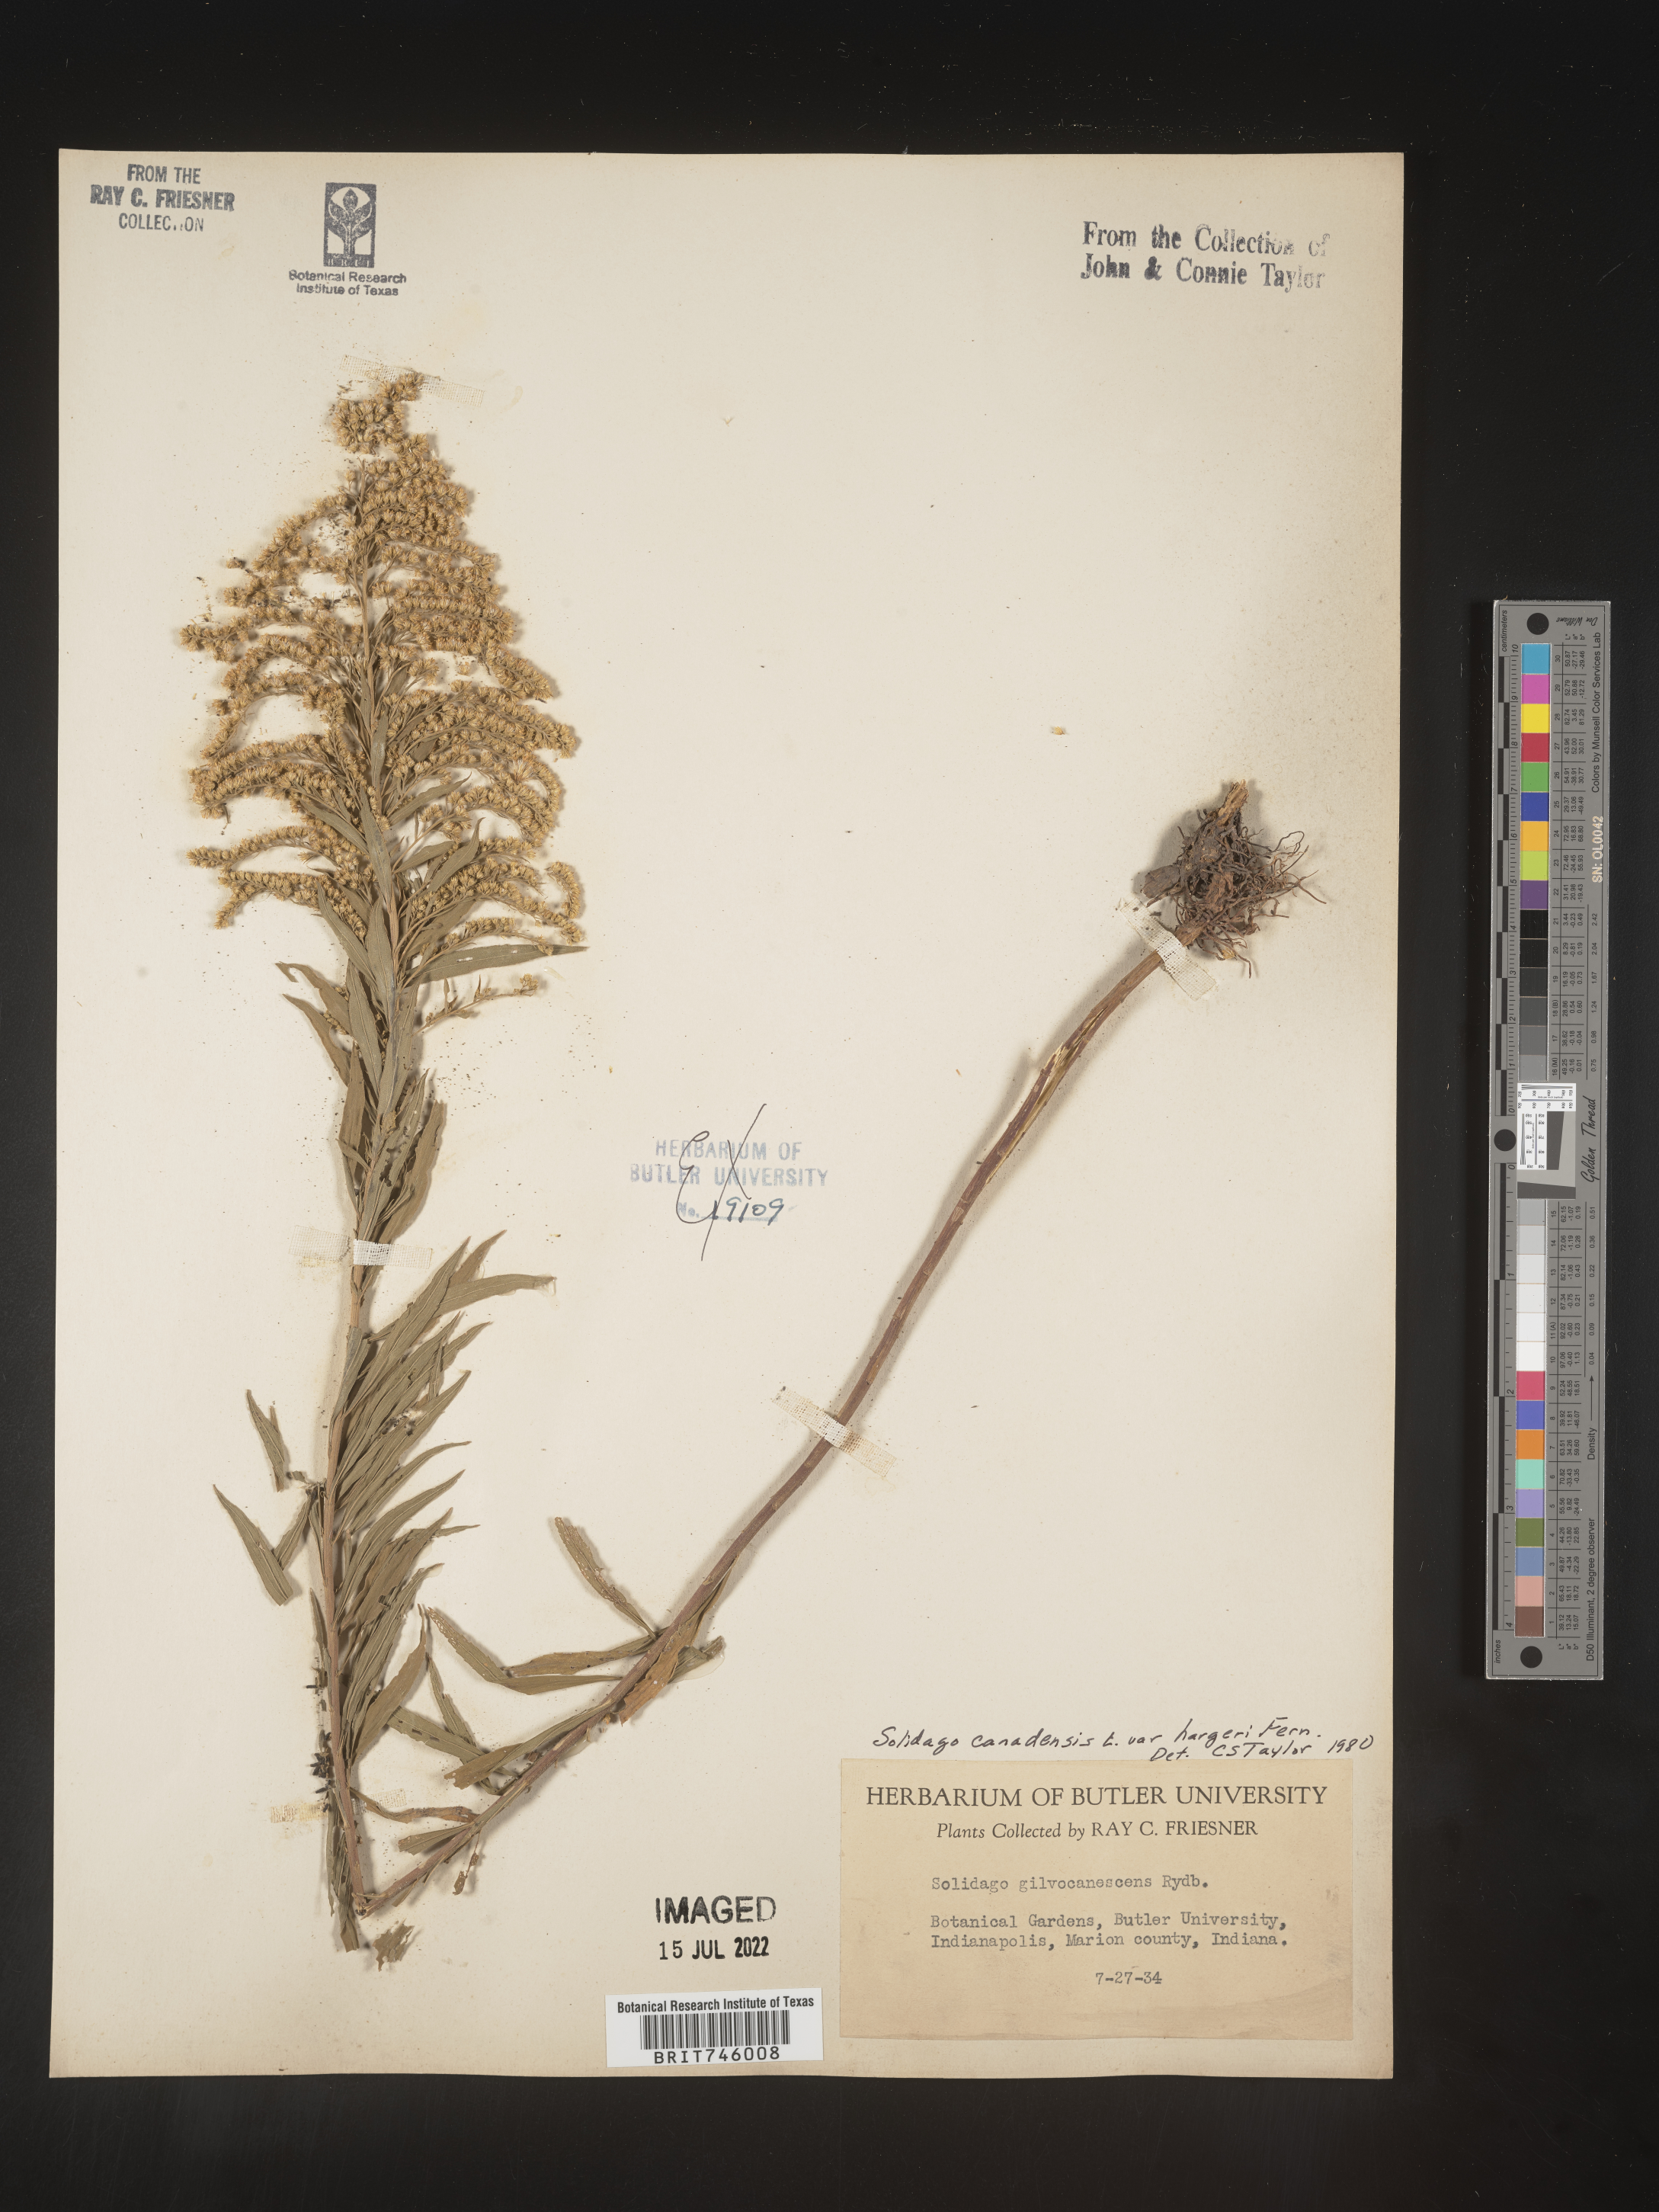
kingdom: Plantae
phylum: Tracheophyta
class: Magnoliopsida
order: Asterales
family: Asteraceae
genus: Solidago
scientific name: Solidago canadensis
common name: Canada goldenrod
